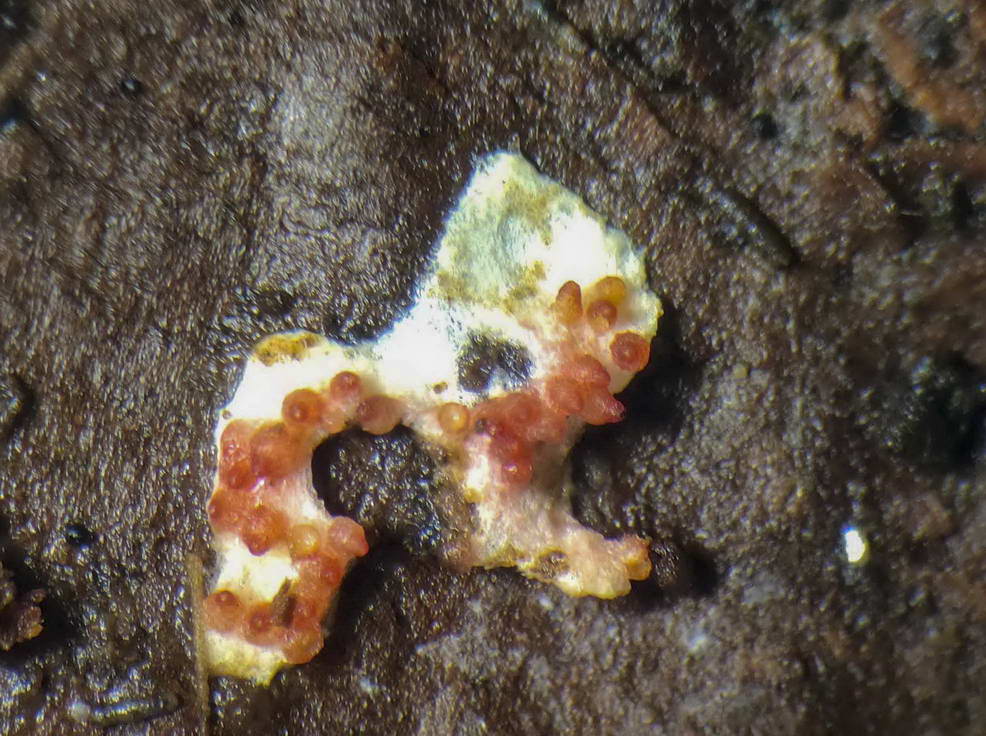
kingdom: Fungi
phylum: Ascomycota
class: Sordariomycetes
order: Hypocreales
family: Hypocreaceae
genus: Hypomyces
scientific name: Hypomyces
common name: snylteskorpe
